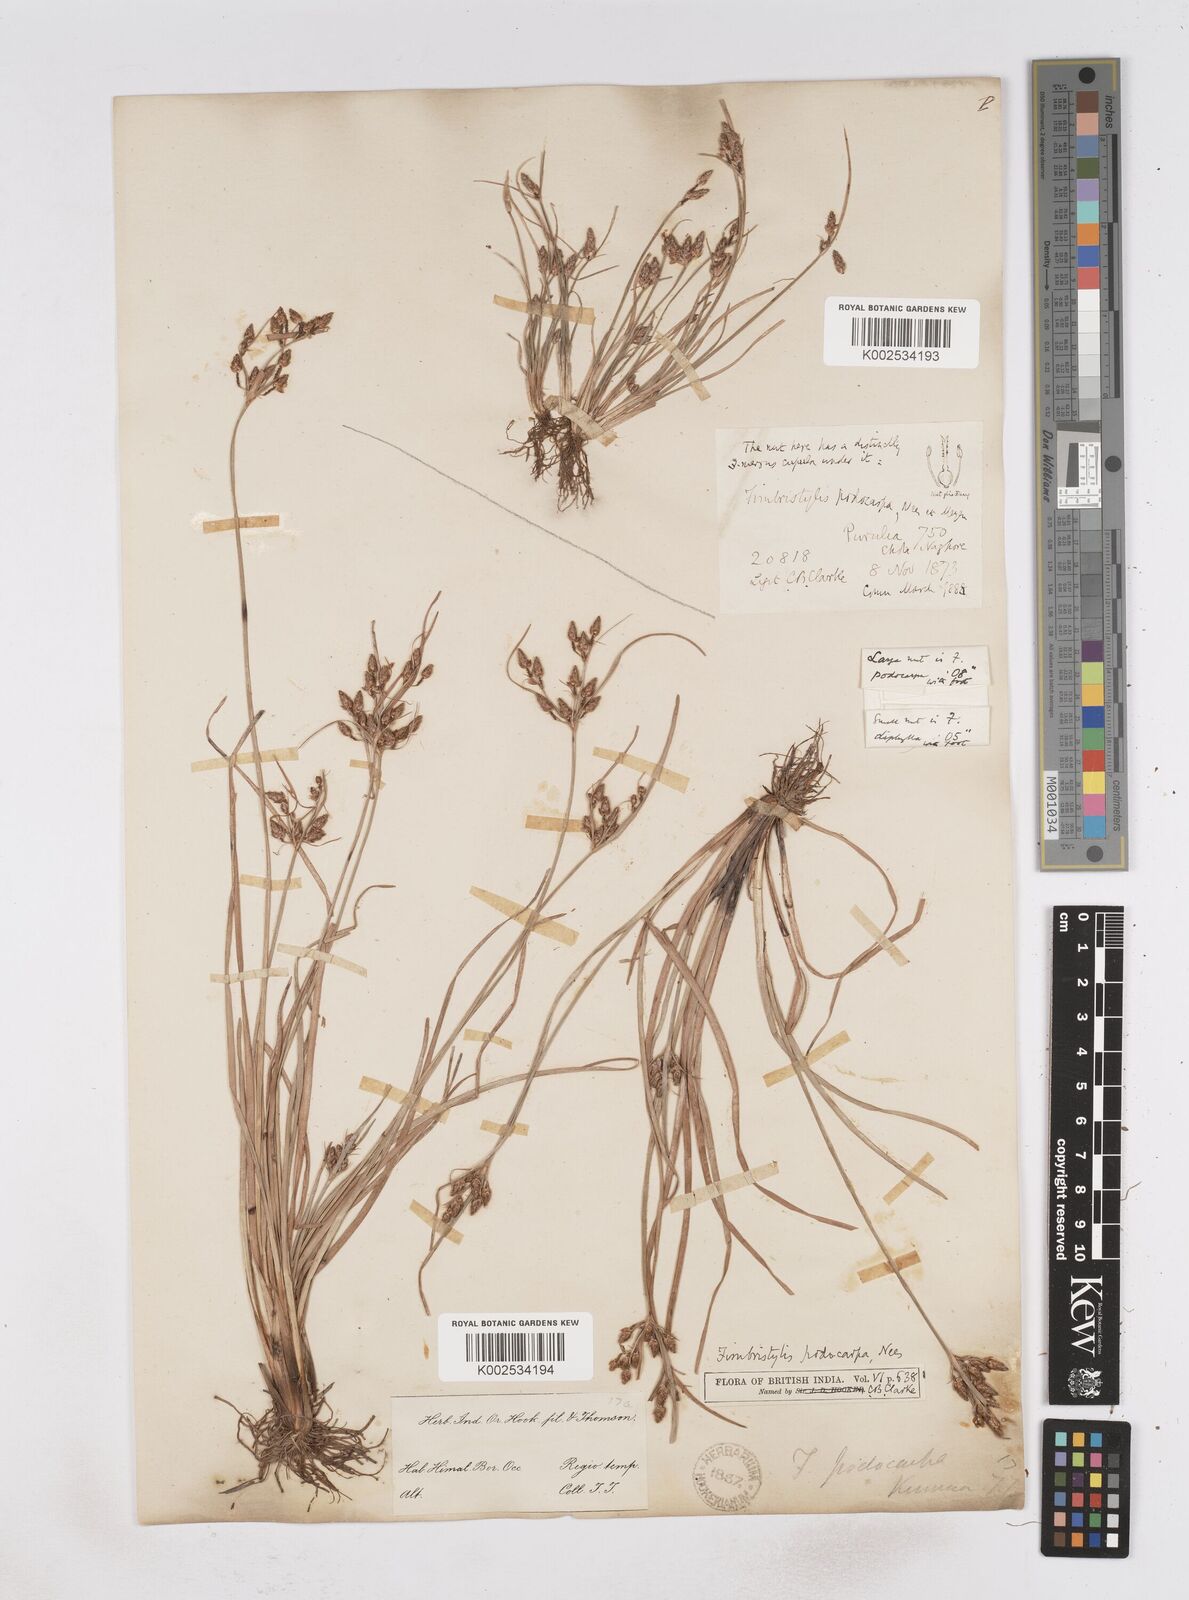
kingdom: Plantae
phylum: Tracheophyta
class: Liliopsida
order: Poales
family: Cyperaceae
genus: Fimbristylis
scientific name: Fimbristylis dichotoma
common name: Forked fimbry
